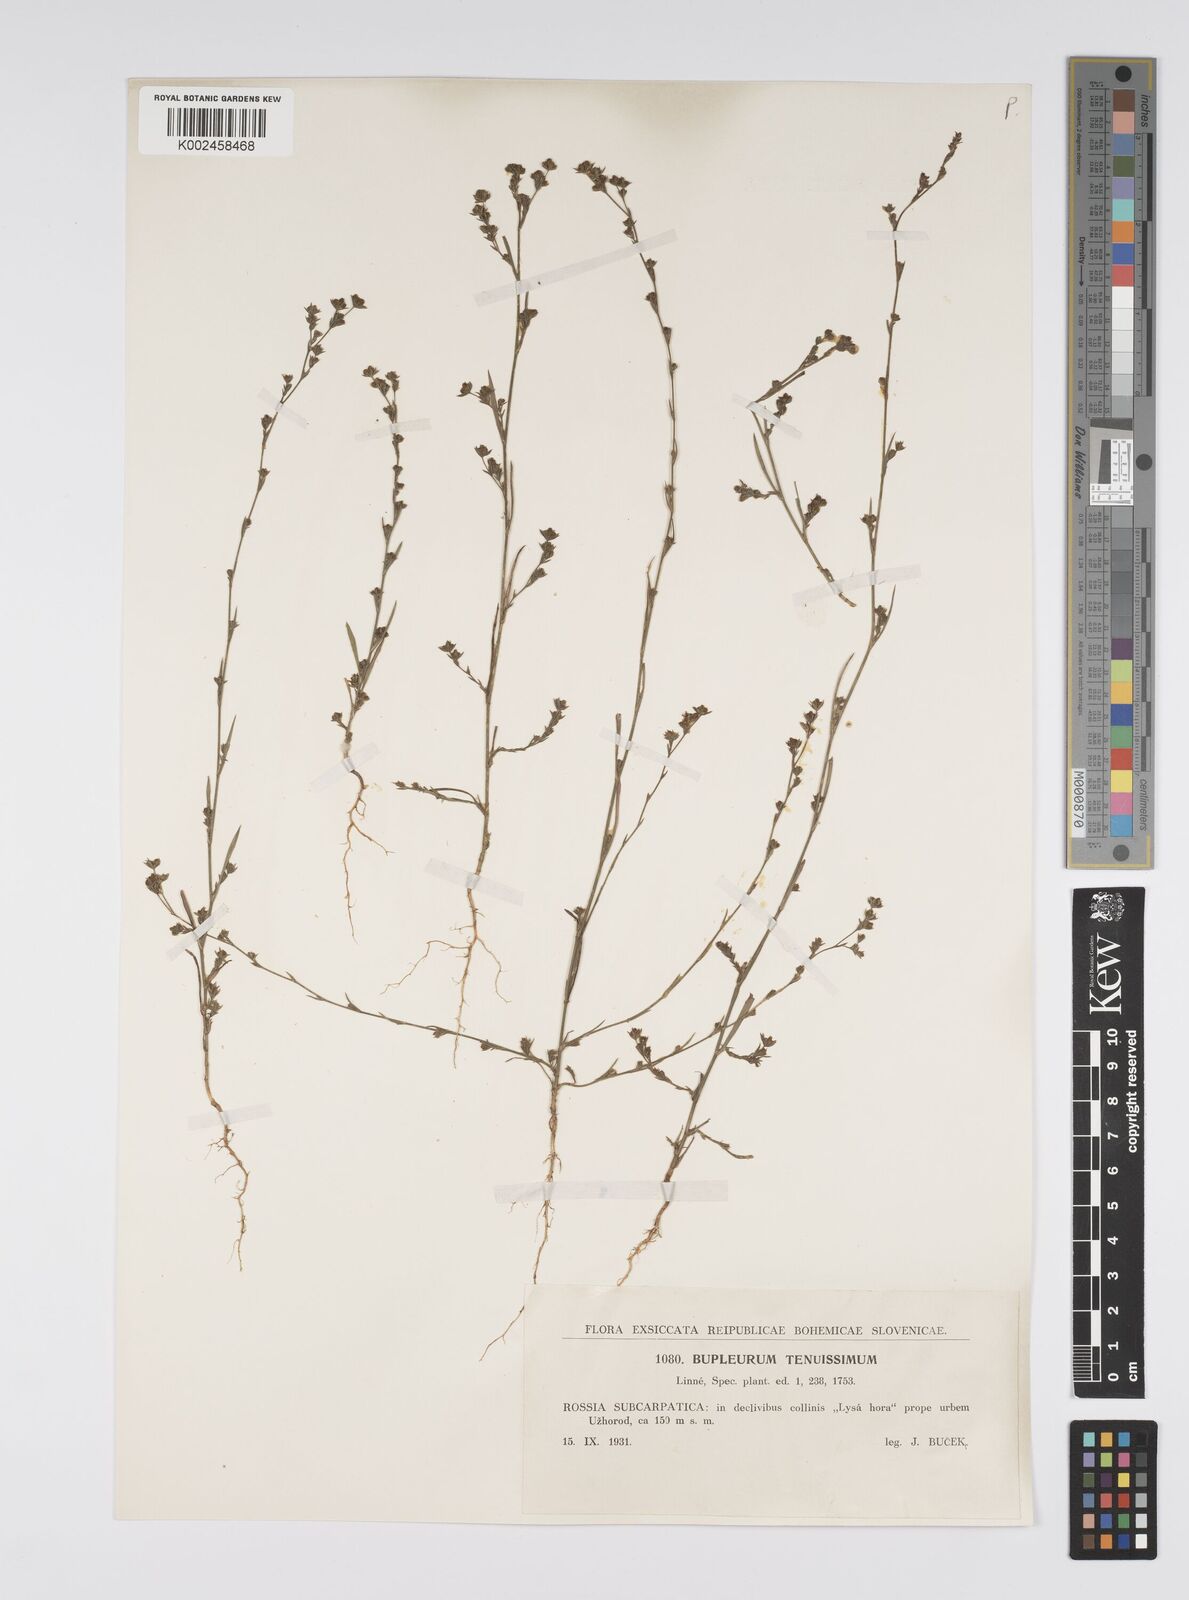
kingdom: Plantae
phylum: Tracheophyta
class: Magnoliopsida
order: Apiales
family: Apiaceae
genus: Bupleurum
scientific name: Bupleurum tenuissimum
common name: Slender hare's-ear
